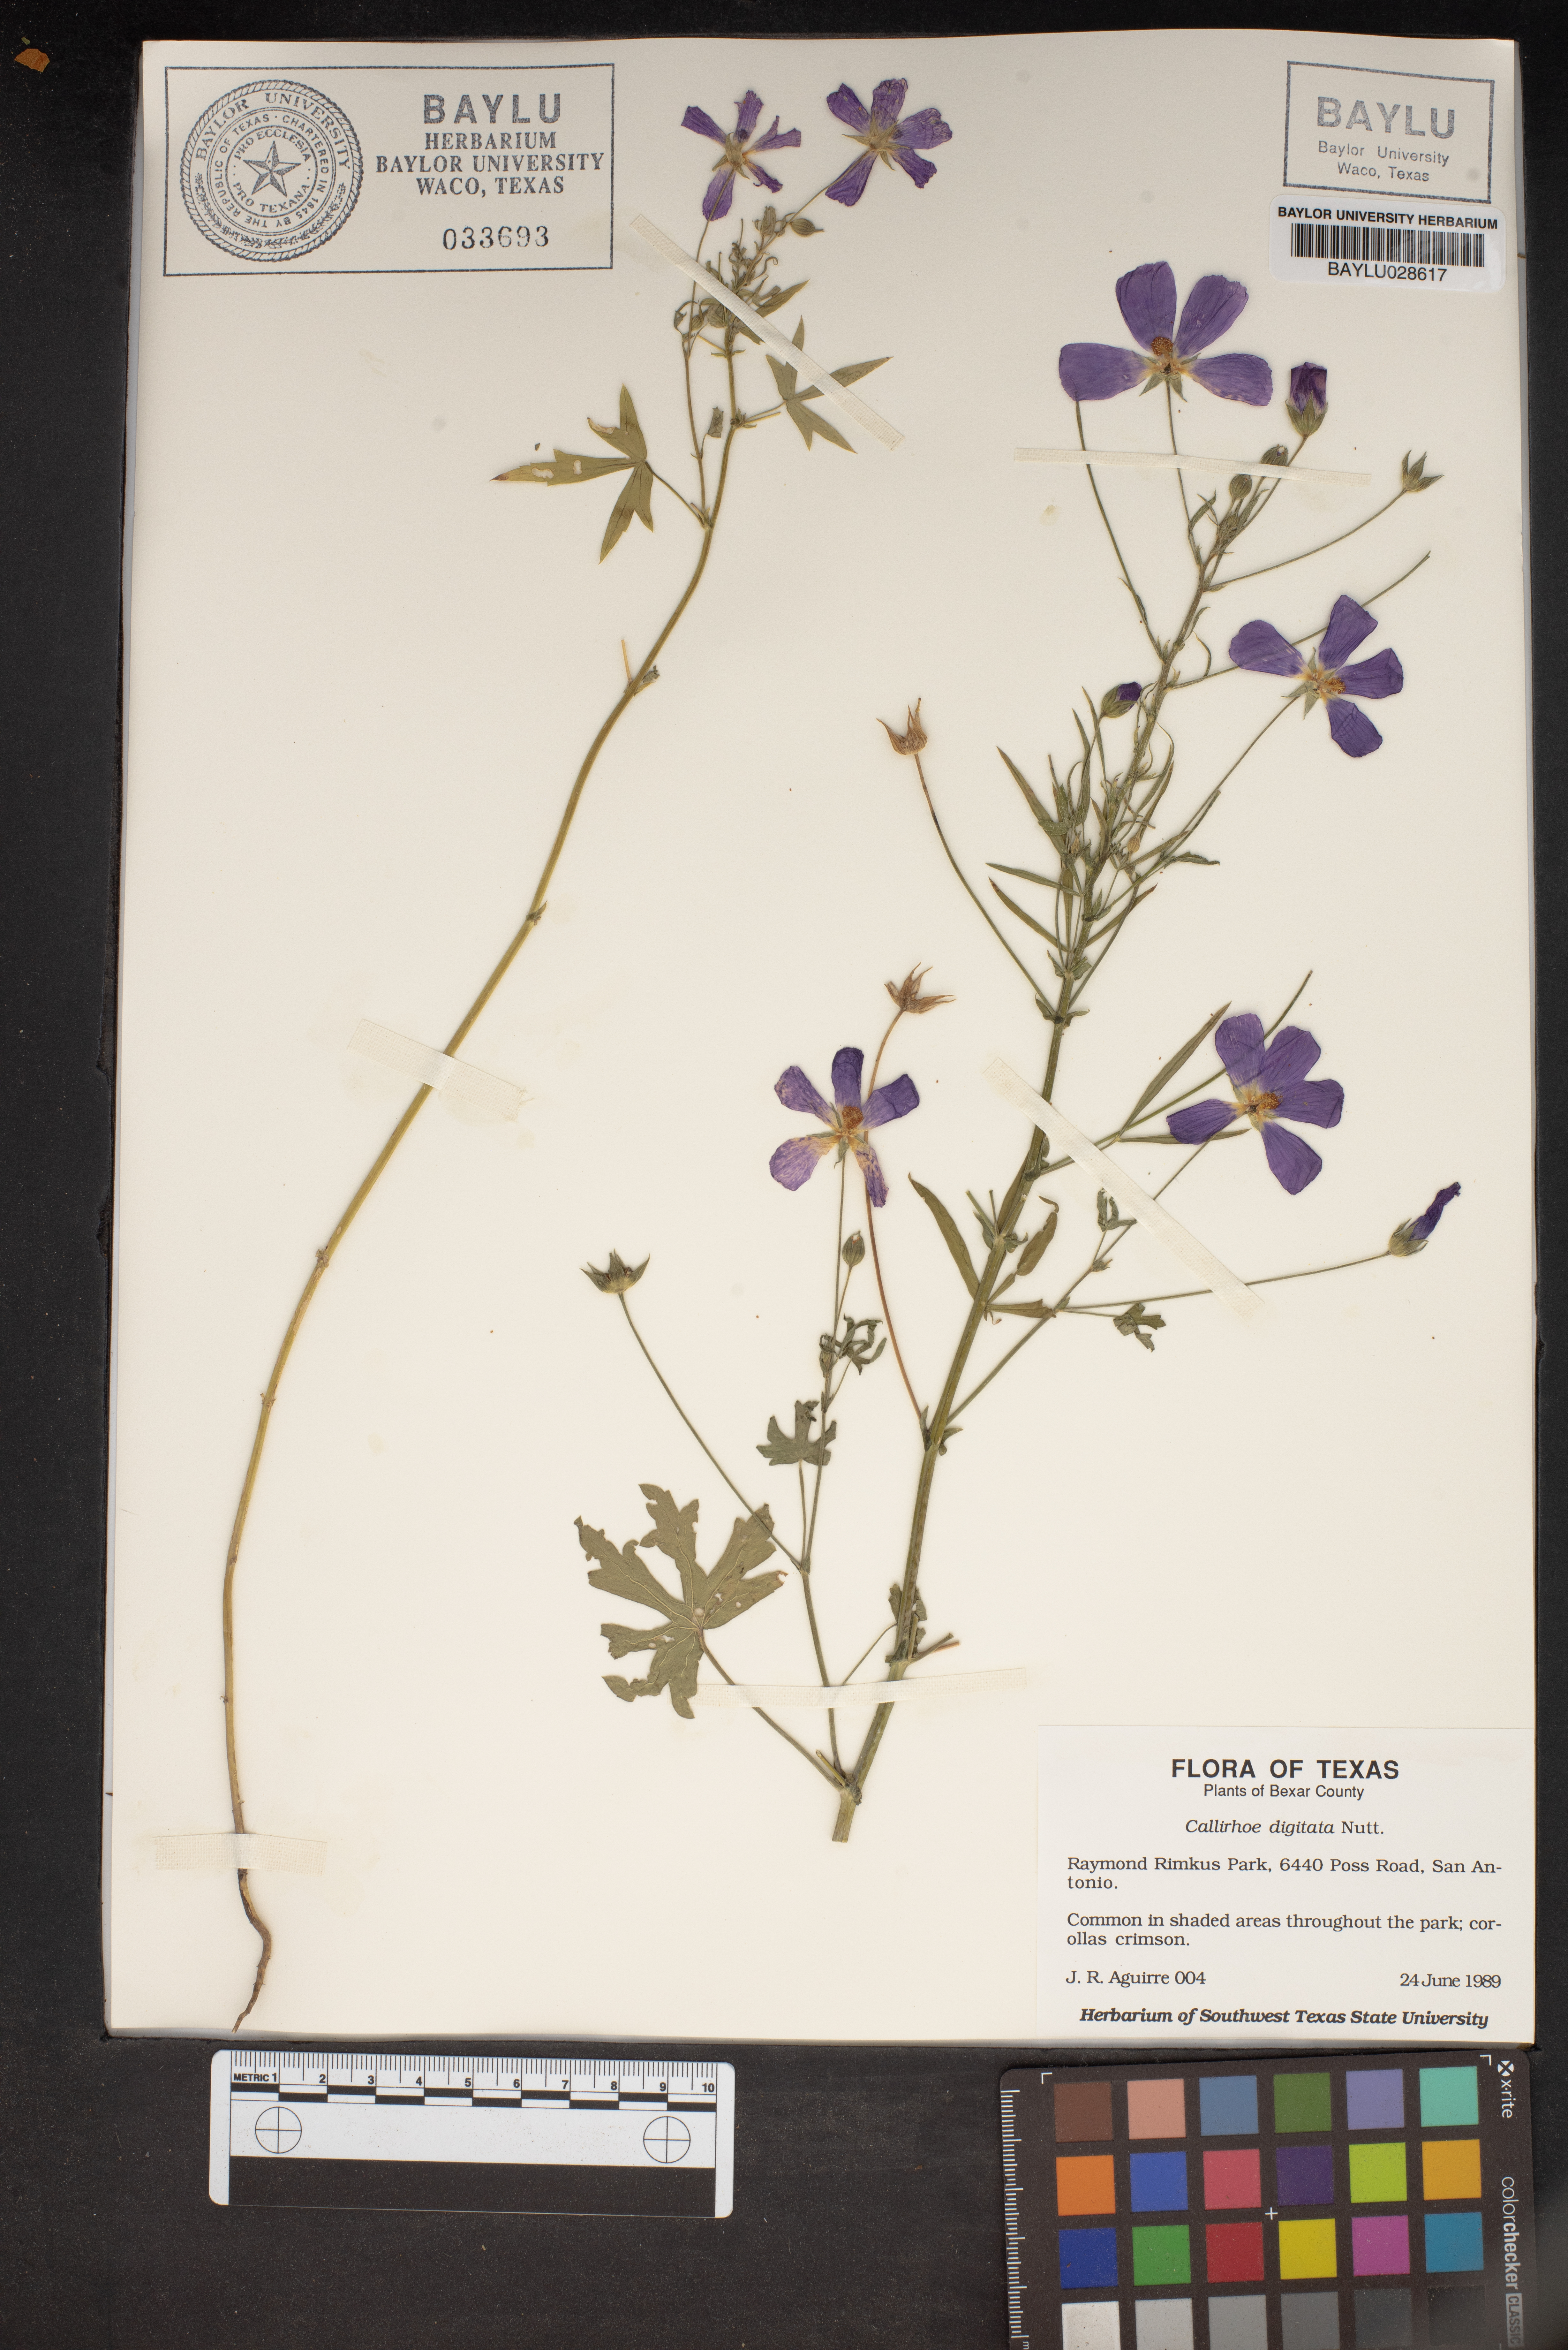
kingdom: Plantae
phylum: Tracheophyta
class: Magnoliopsida
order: Malvales
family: Malvaceae
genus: Callirhoe
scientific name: Callirhoe digitata
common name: Finger poppy-mallow
